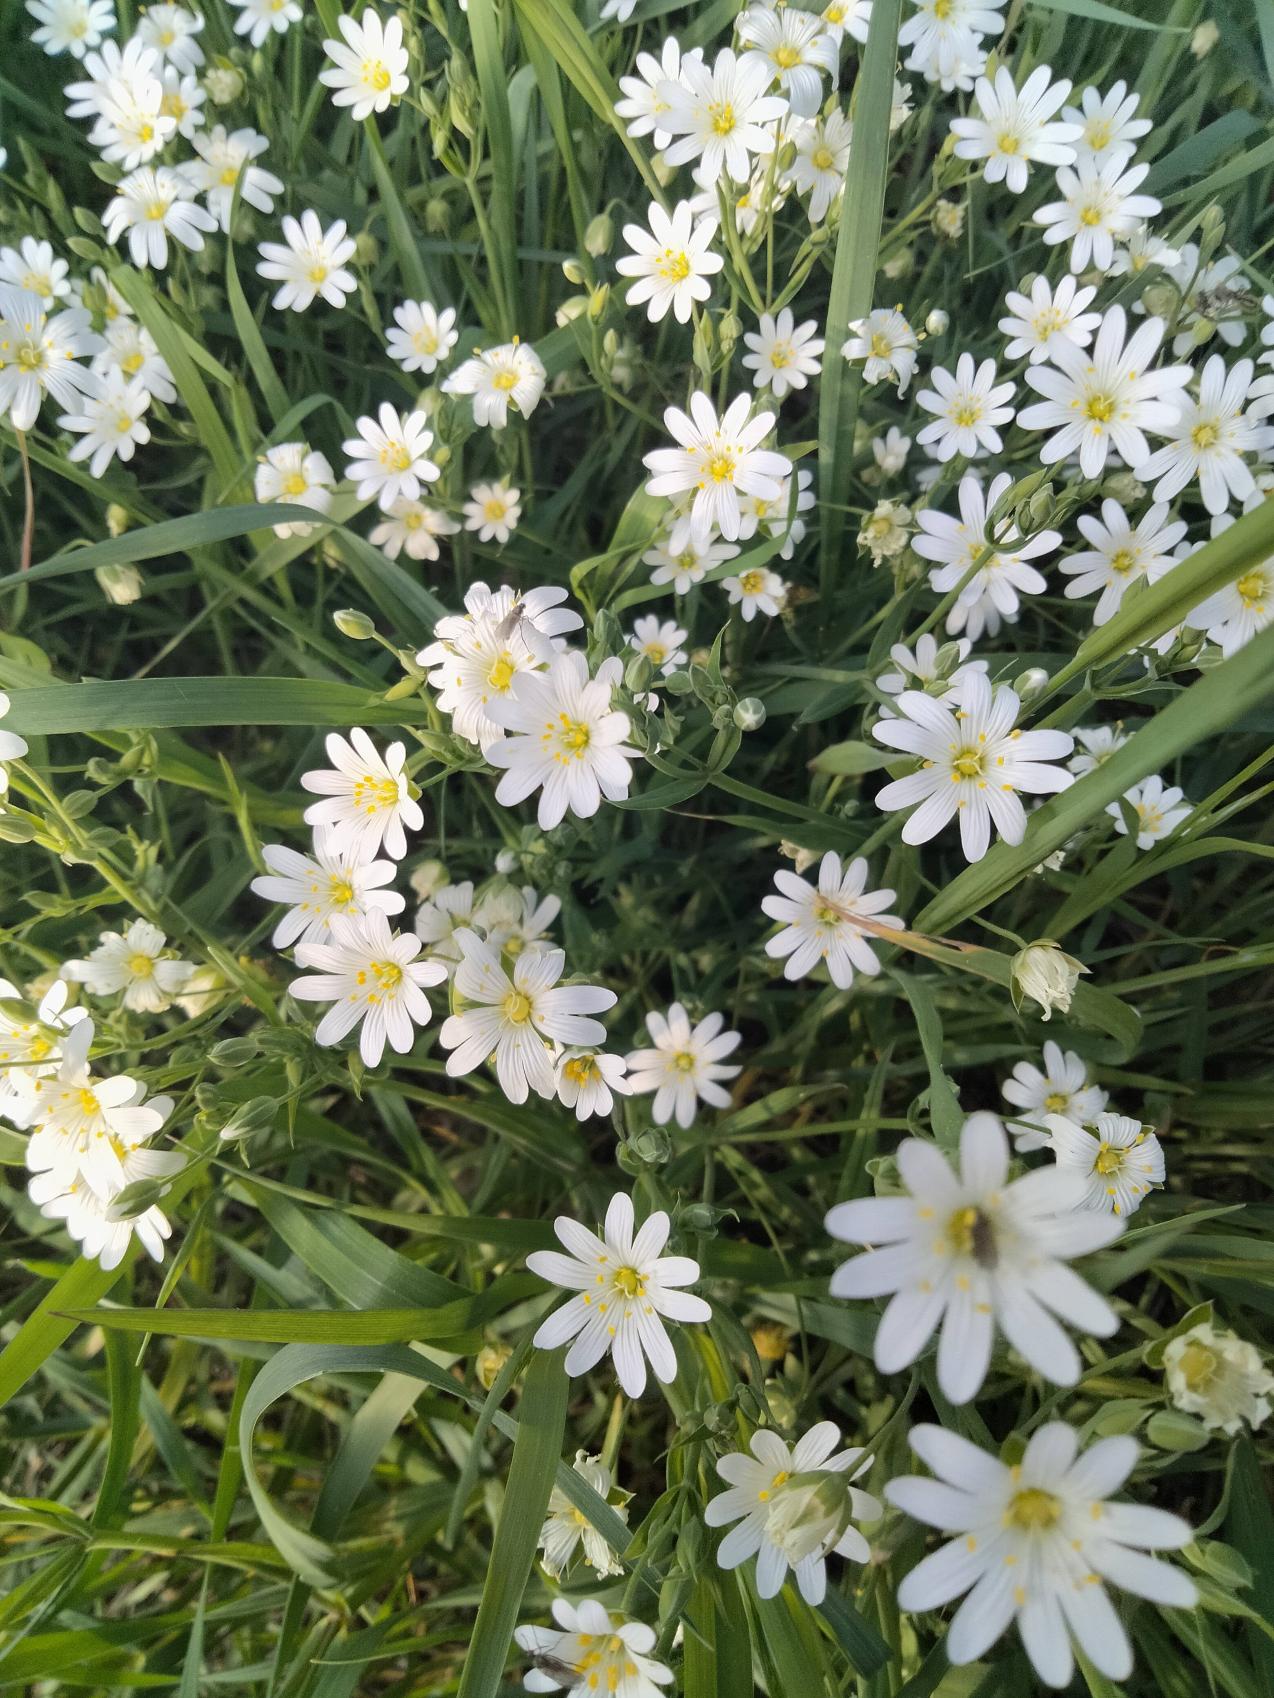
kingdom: Plantae
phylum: Tracheophyta
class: Magnoliopsida
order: Caryophyllales
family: Caryophyllaceae
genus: Rabelera
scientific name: Rabelera holostea
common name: Stor fladstjerne
